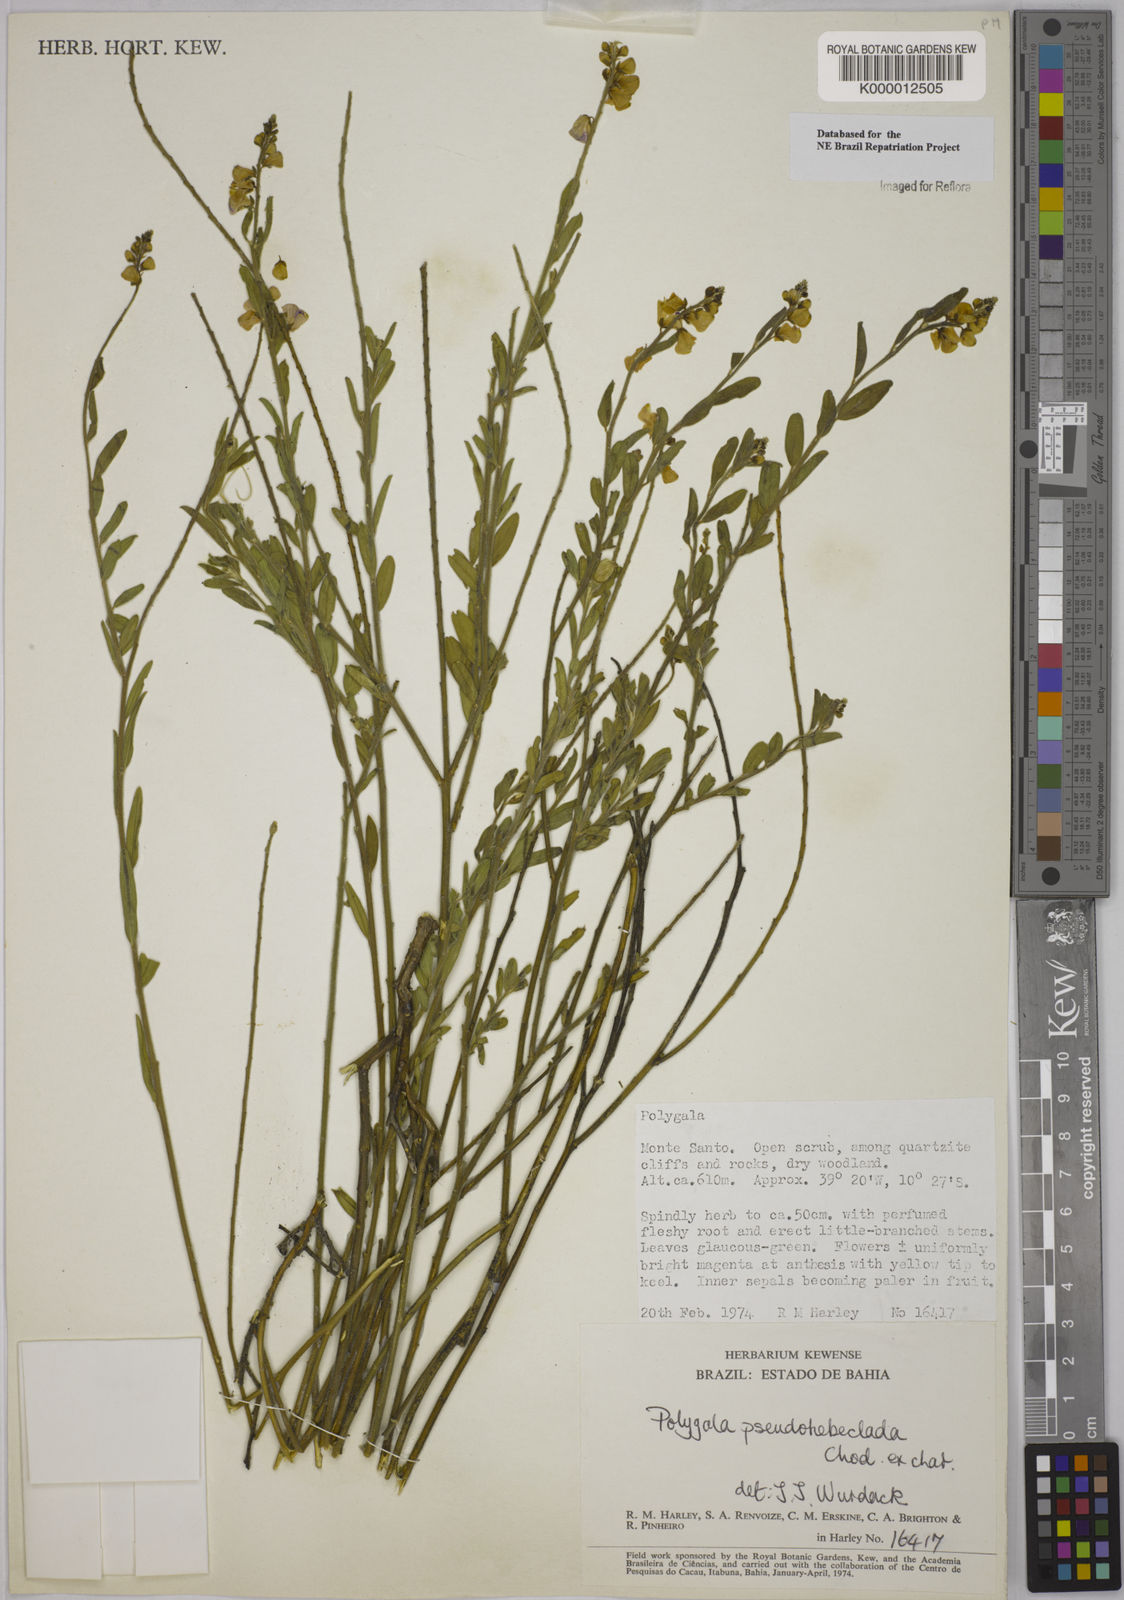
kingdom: Plantae
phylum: Tracheophyta
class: Magnoliopsida
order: Fabales
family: Polygalaceae
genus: Asemeia
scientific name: Asemeia pseudohebeclada
